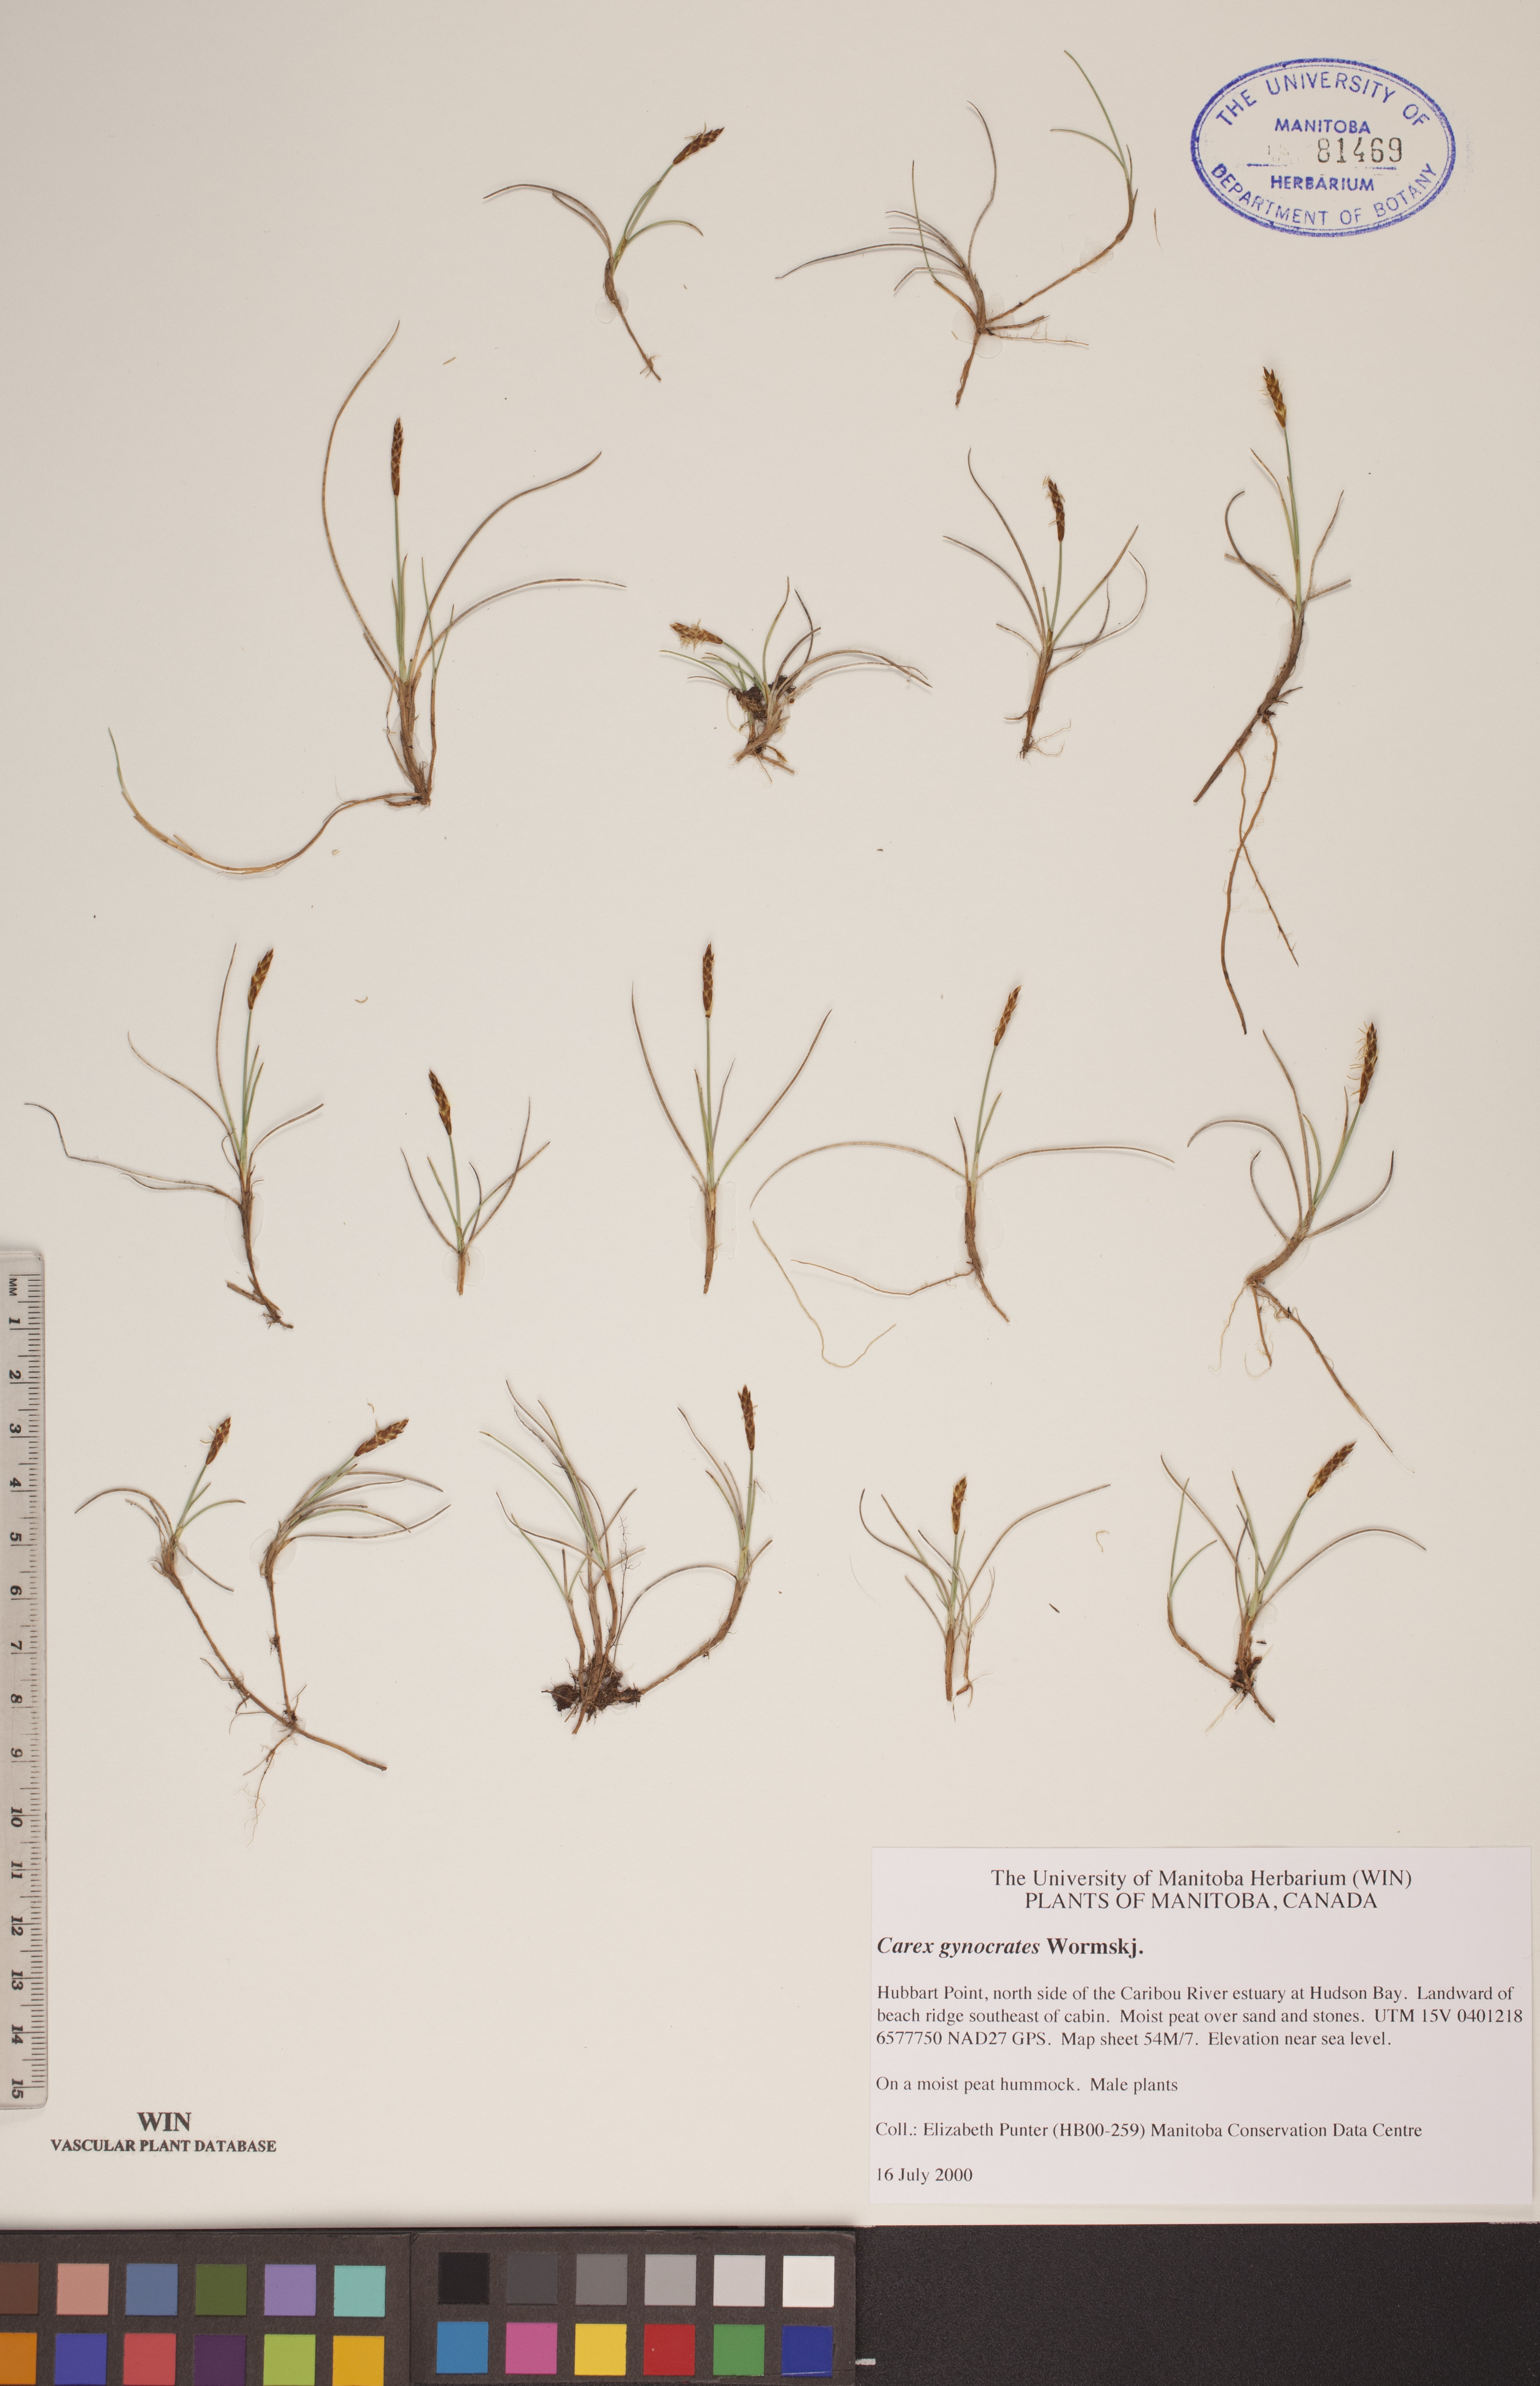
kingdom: Plantae
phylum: Tracheophyta
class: Liliopsida
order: Poales
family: Cyperaceae
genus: Carex
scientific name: Carex nardina
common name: Nard sedge
